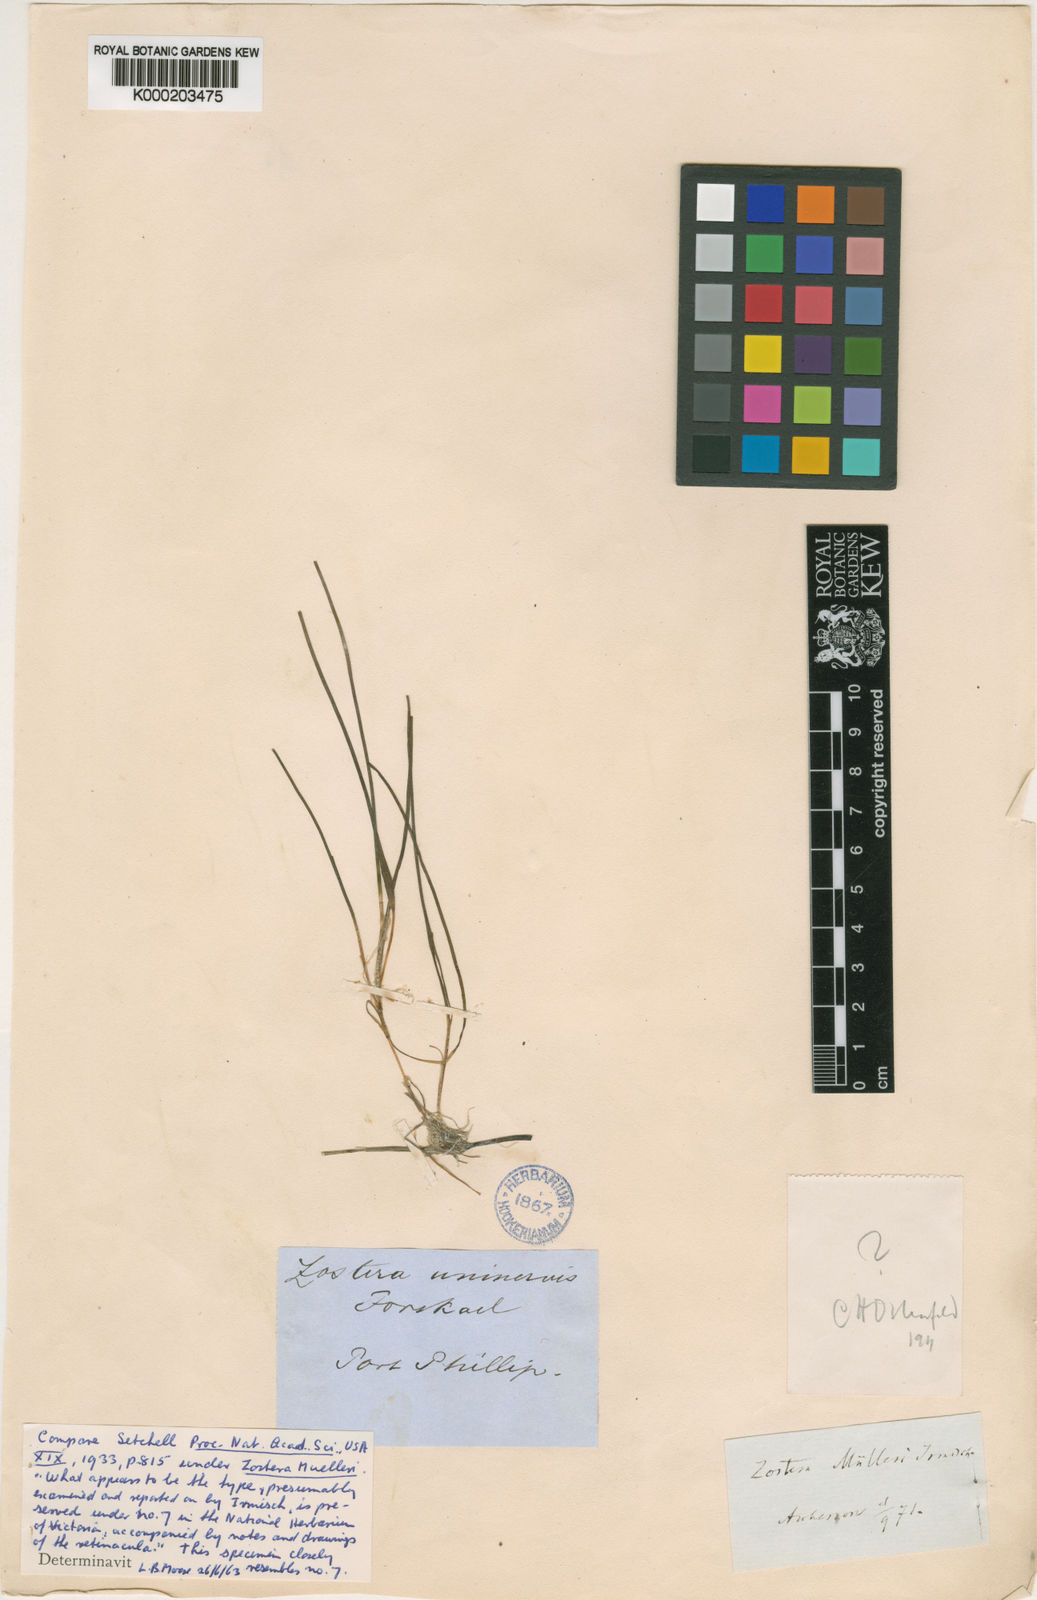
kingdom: Plantae
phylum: Tracheophyta
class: Liliopsida
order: Alismatales
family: Zosteraceae
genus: Zostera
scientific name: Zostera muelleri
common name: Species code: zc
